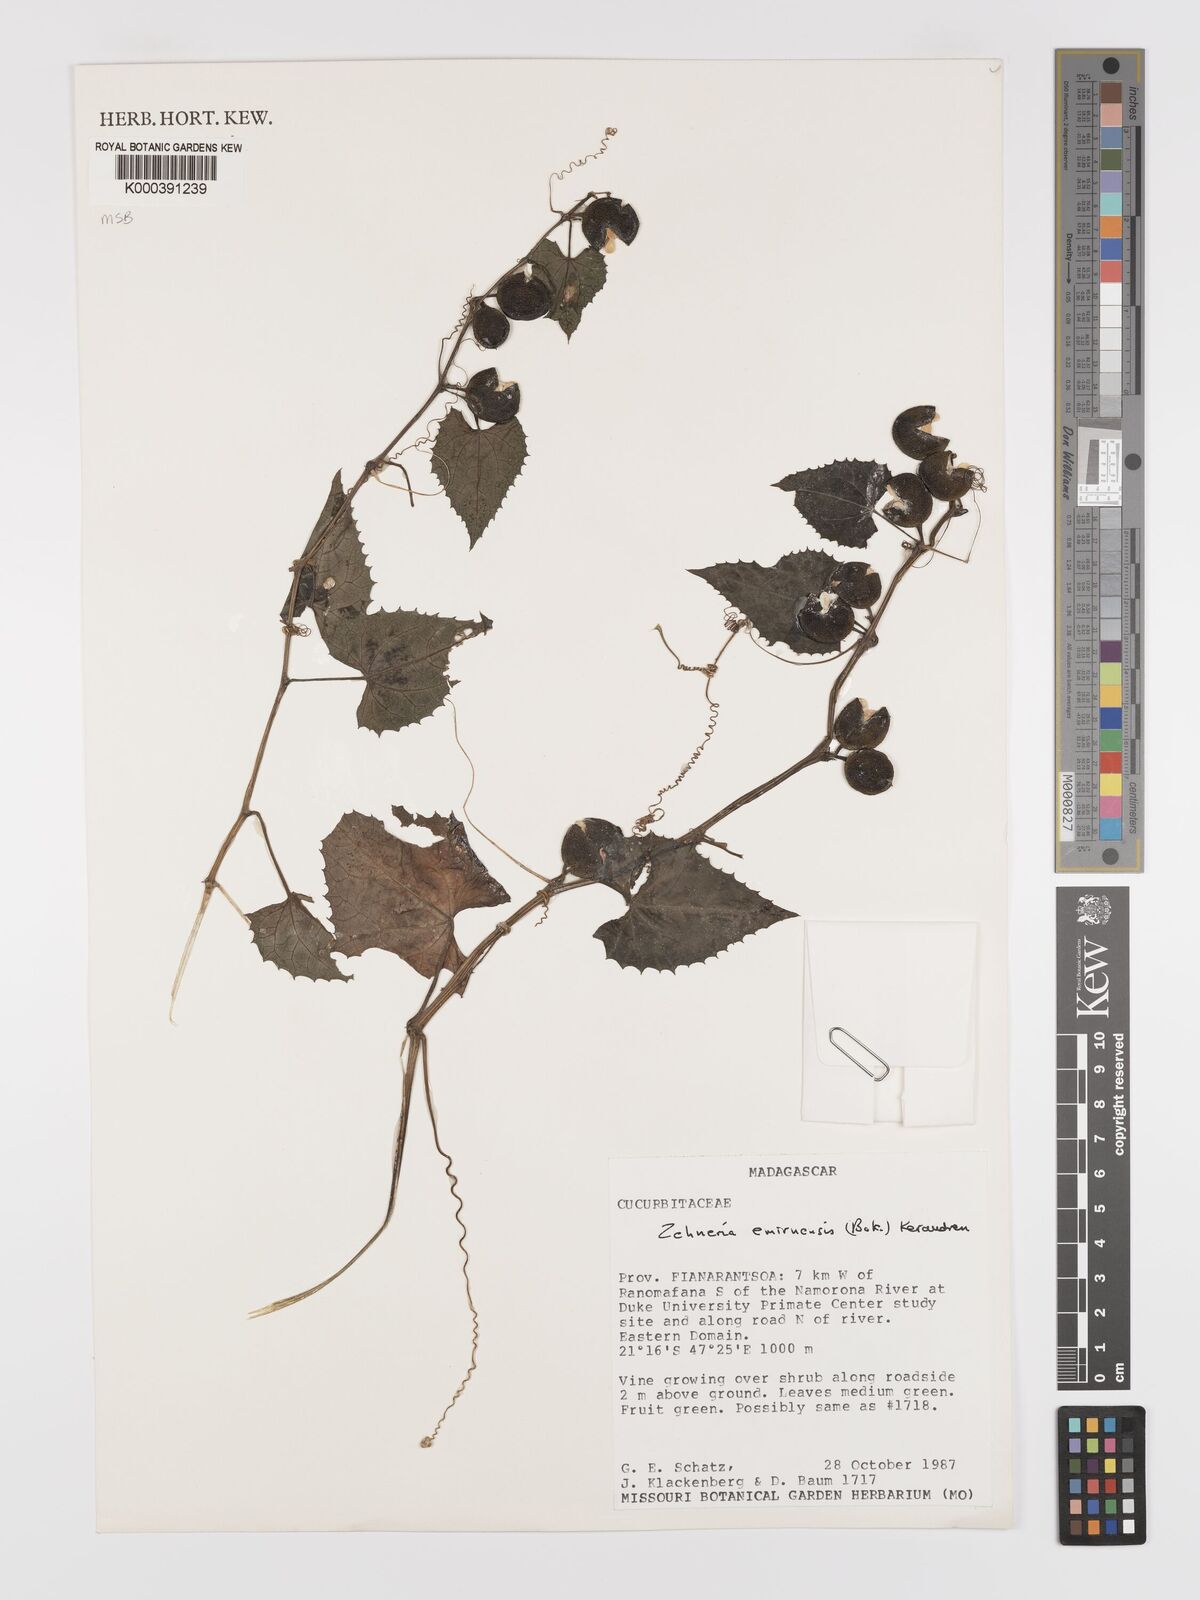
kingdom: Plantae
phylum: Tracheophyta
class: Magnoliopsida
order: Cucurbitales
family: Cucurbitaceae
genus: Zehneria
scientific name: Zehneria emirnensis
